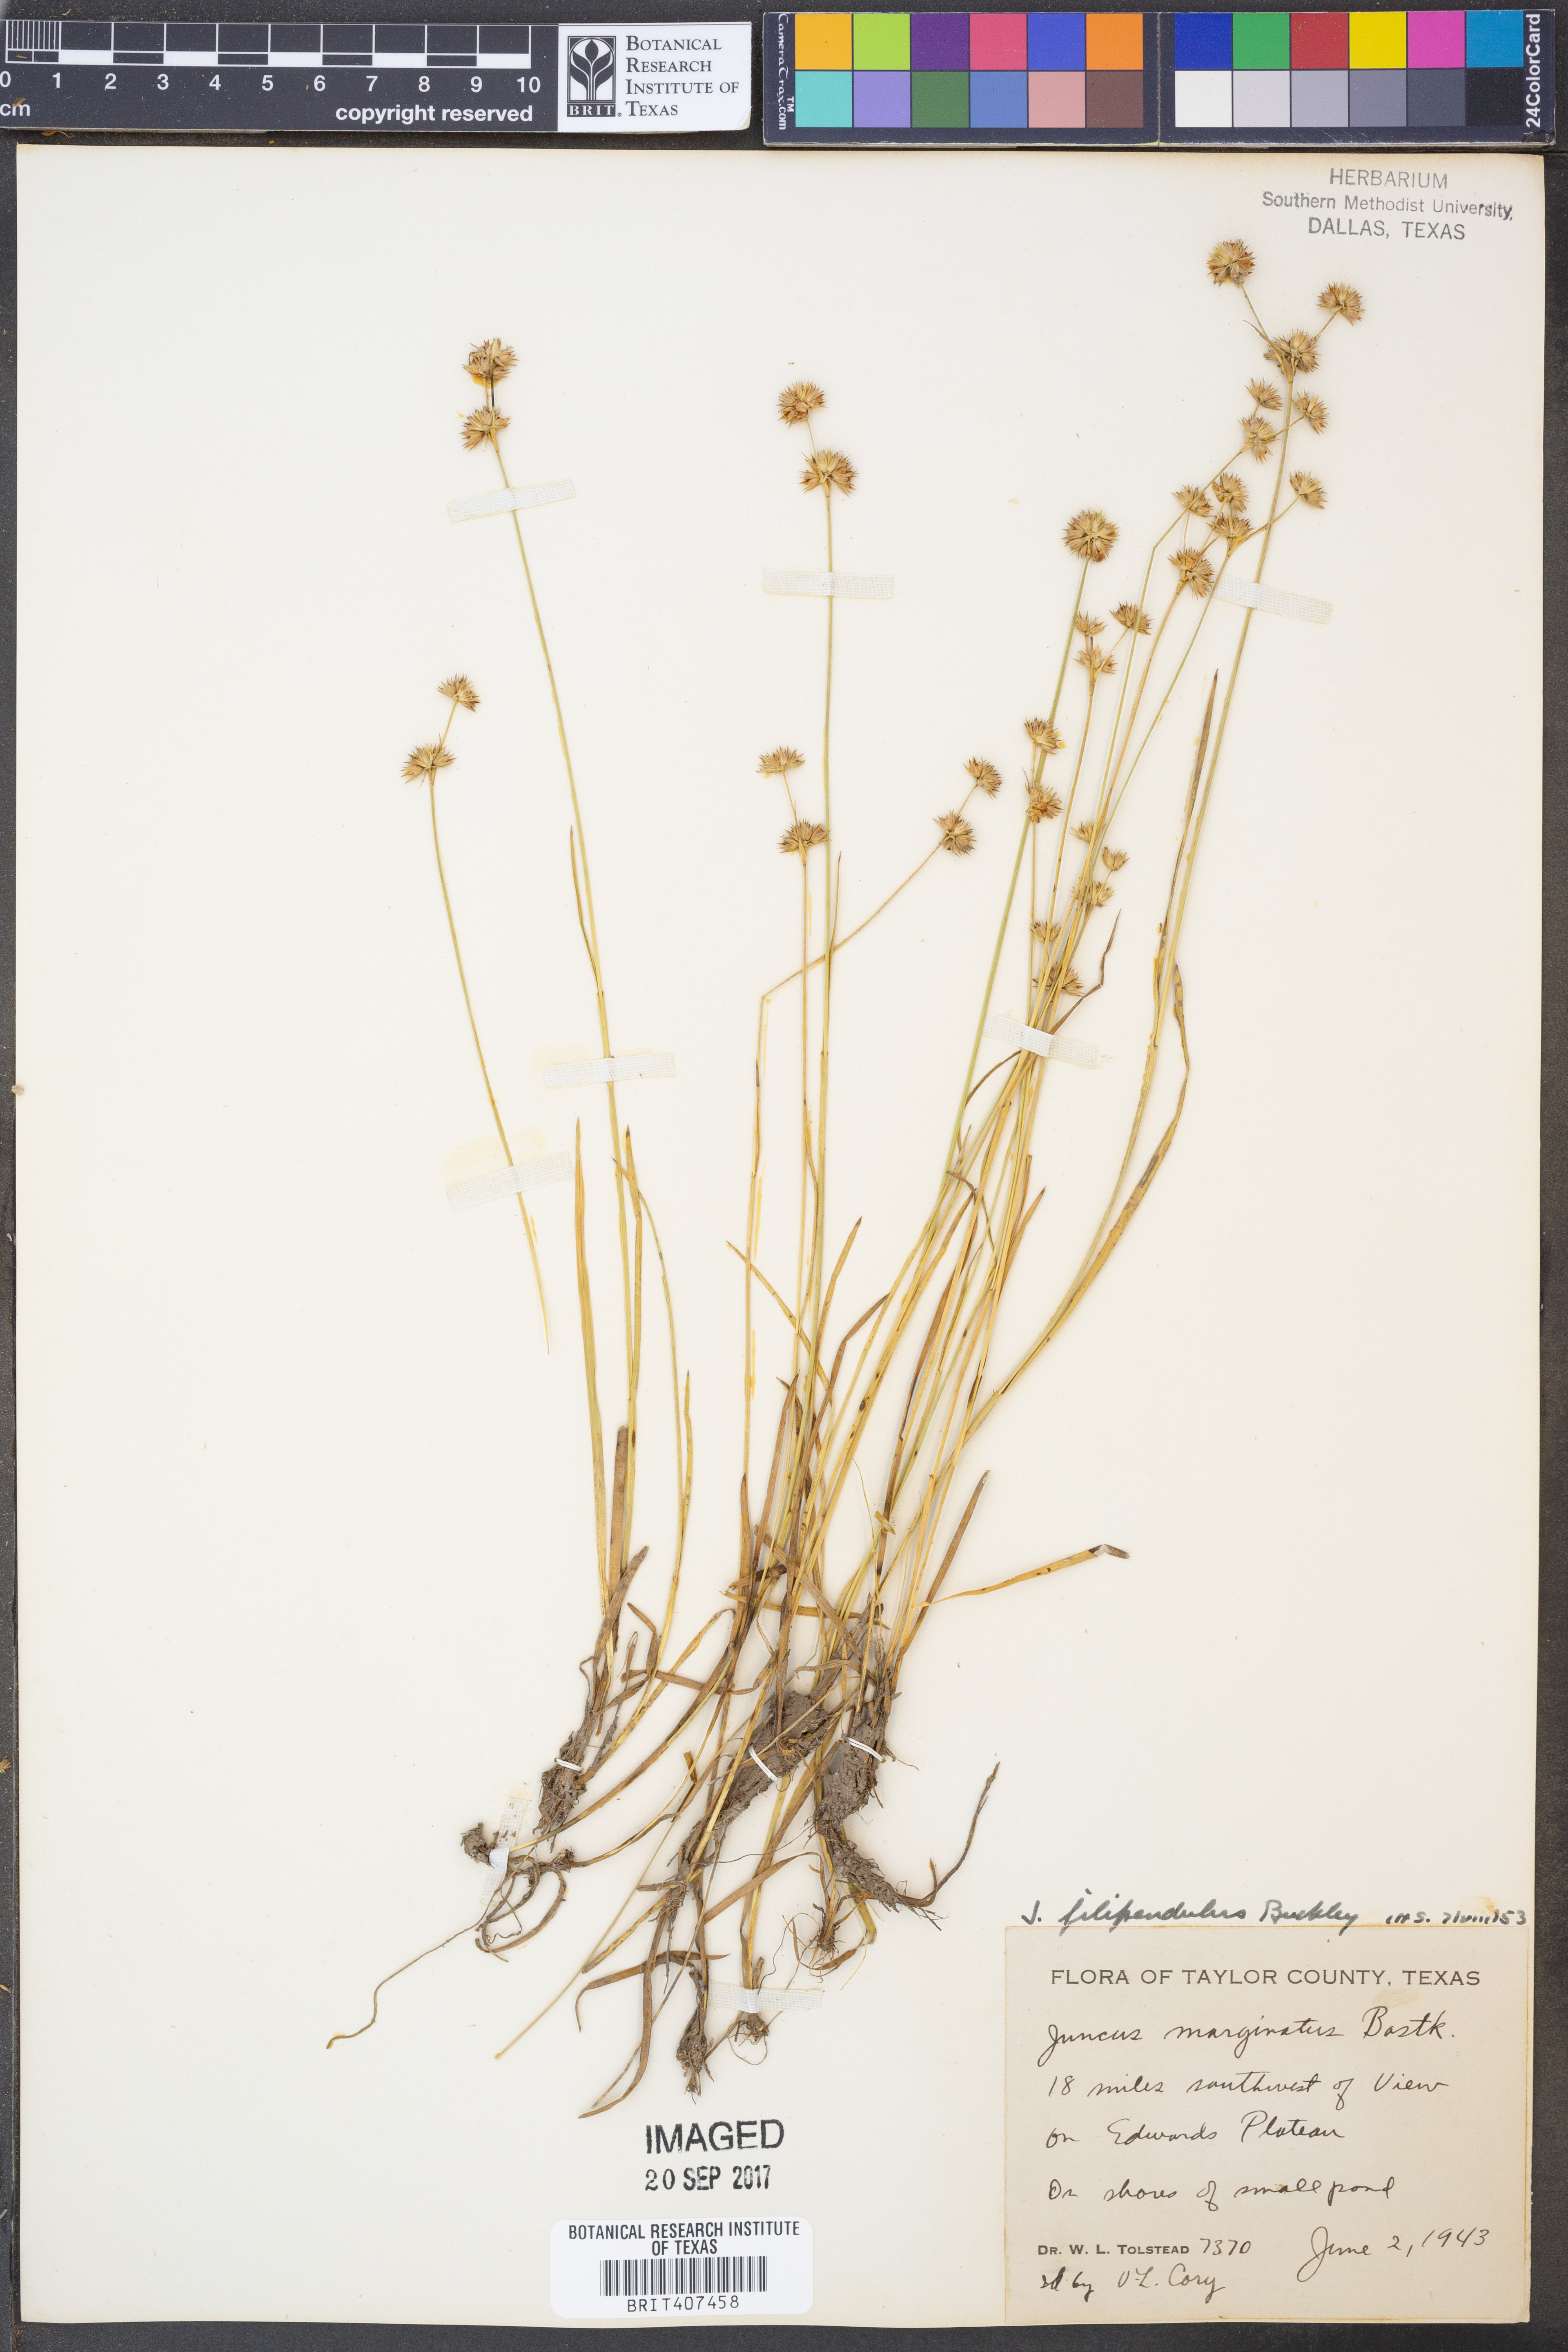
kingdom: Plantae
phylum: Tracheophyta
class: Liliopsida
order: Poales
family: Juncaceae
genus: Juncus
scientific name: Juncus filipendulus
